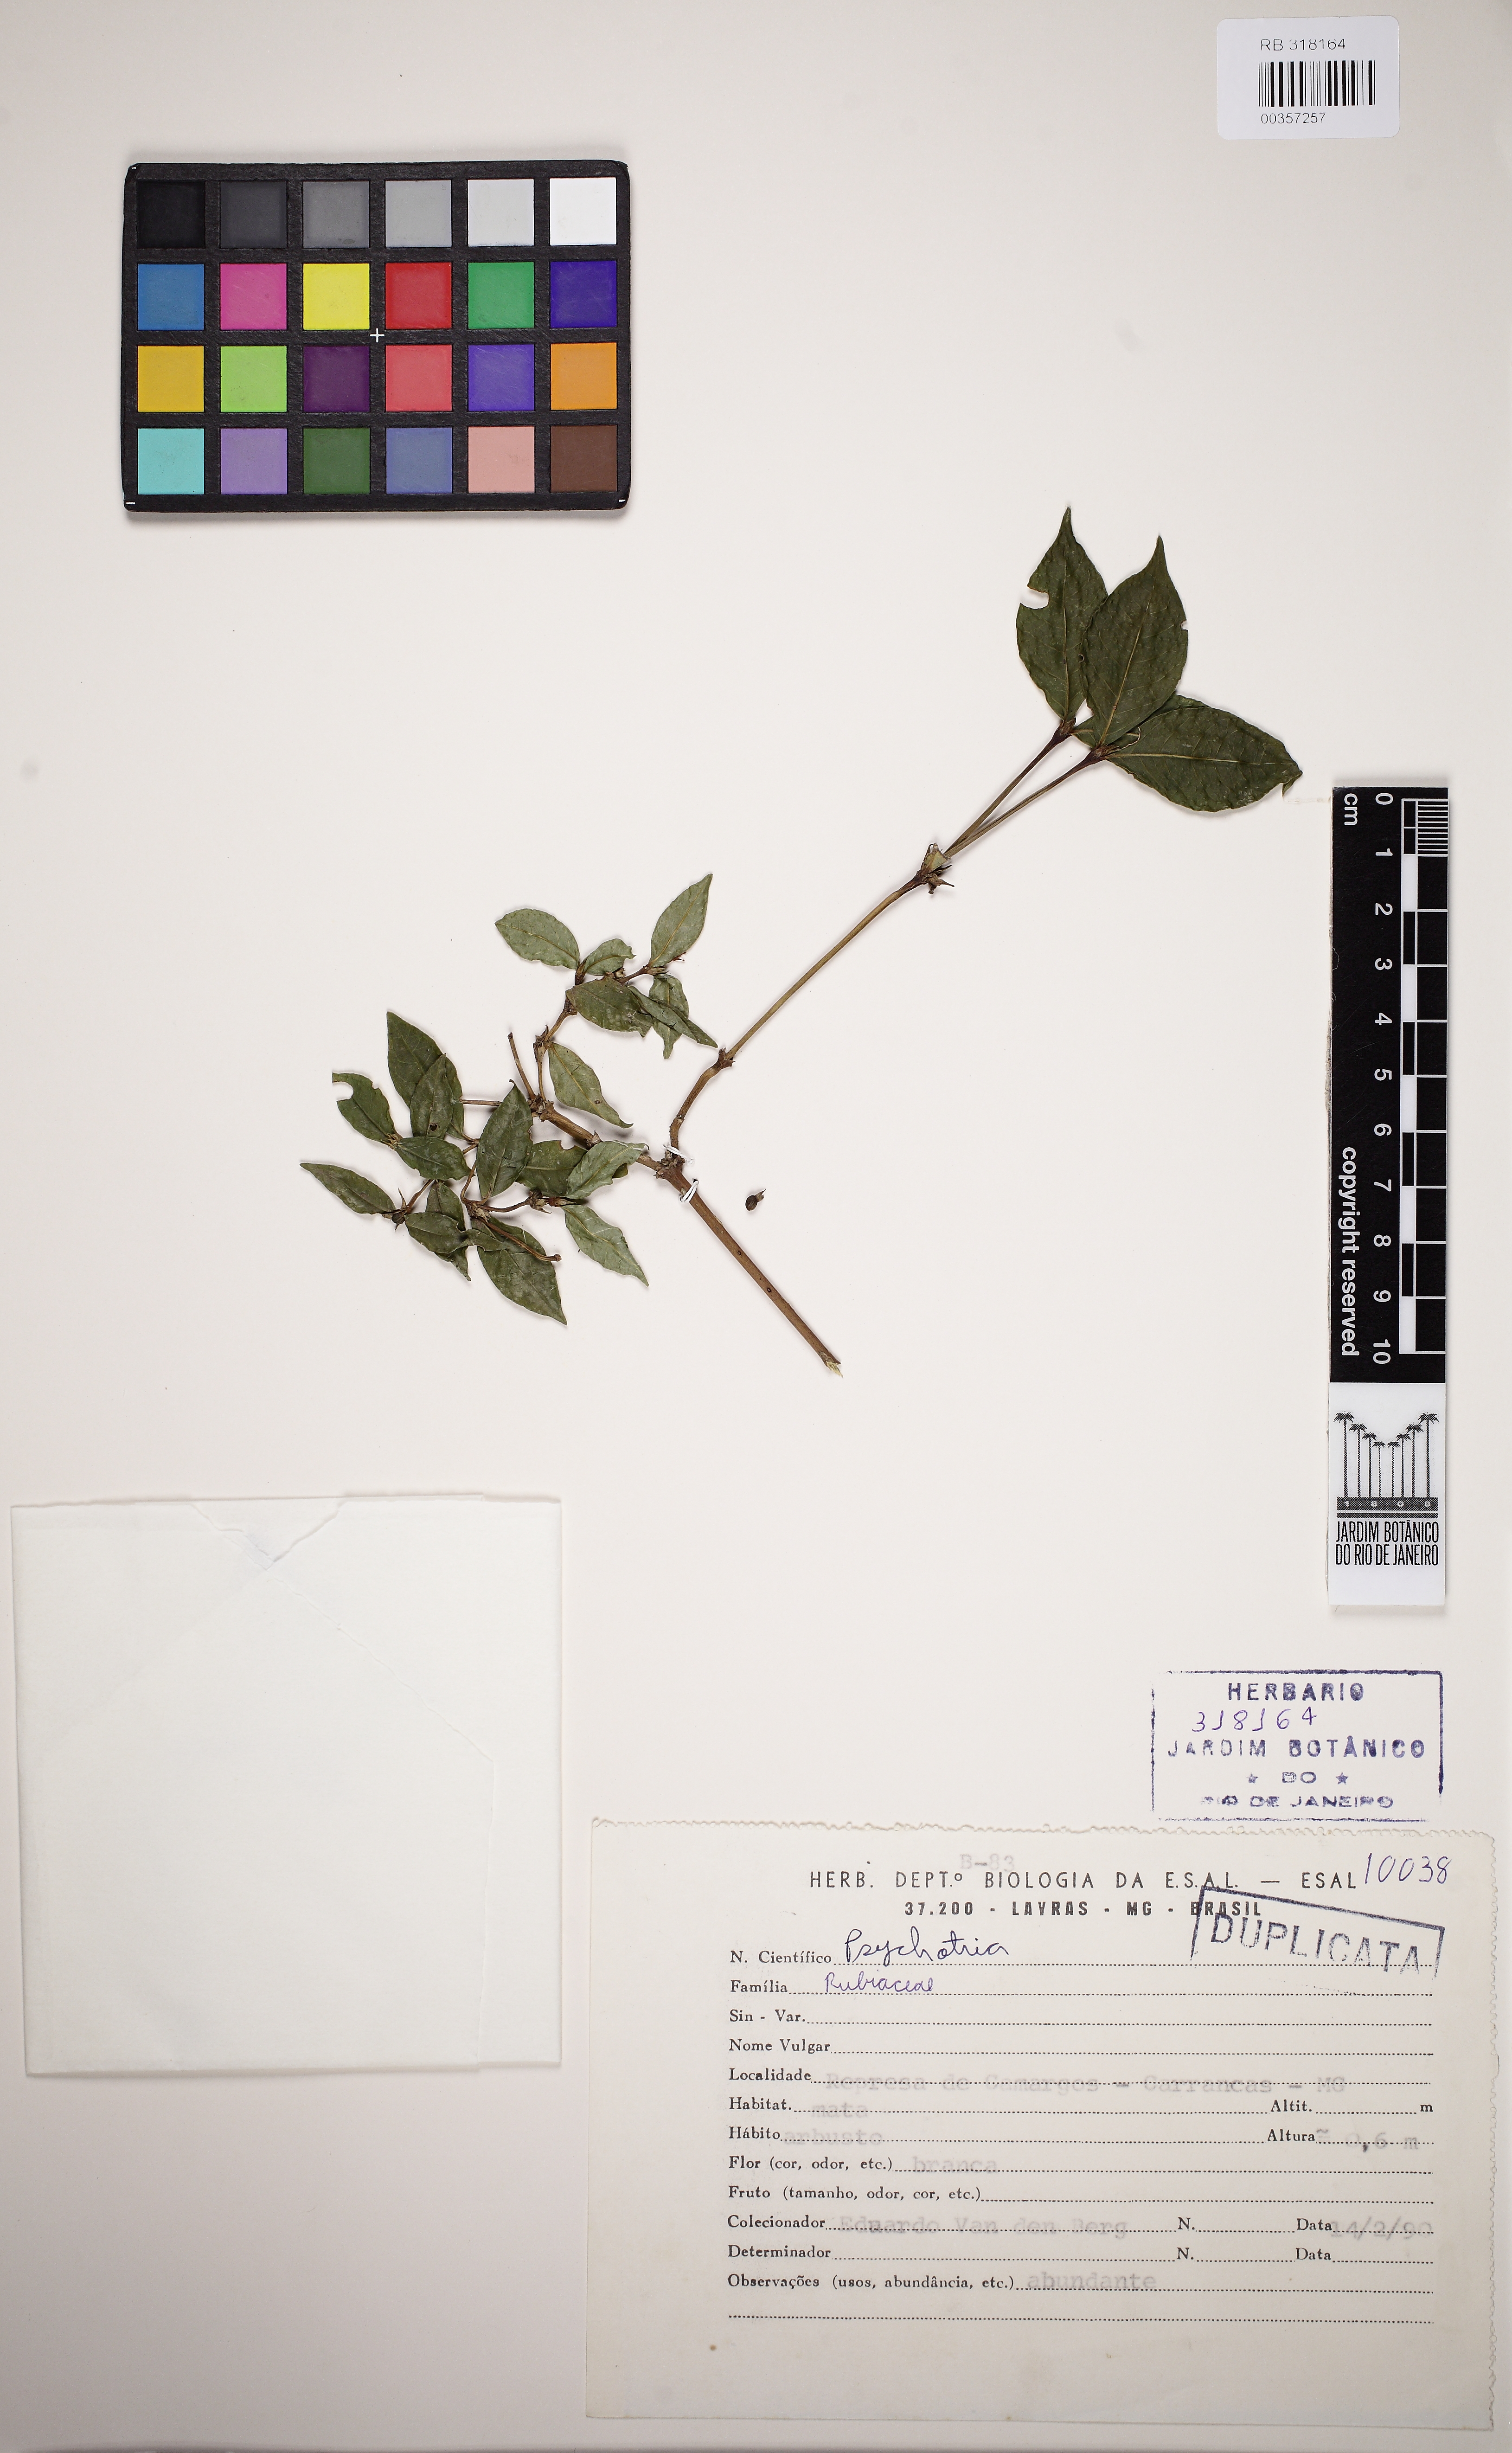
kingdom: Plantae
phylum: Tracheophyta
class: Magnoliopsida
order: Gentianales
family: Rubiaceae
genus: Psychotria
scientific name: Psychotria subtriflora
